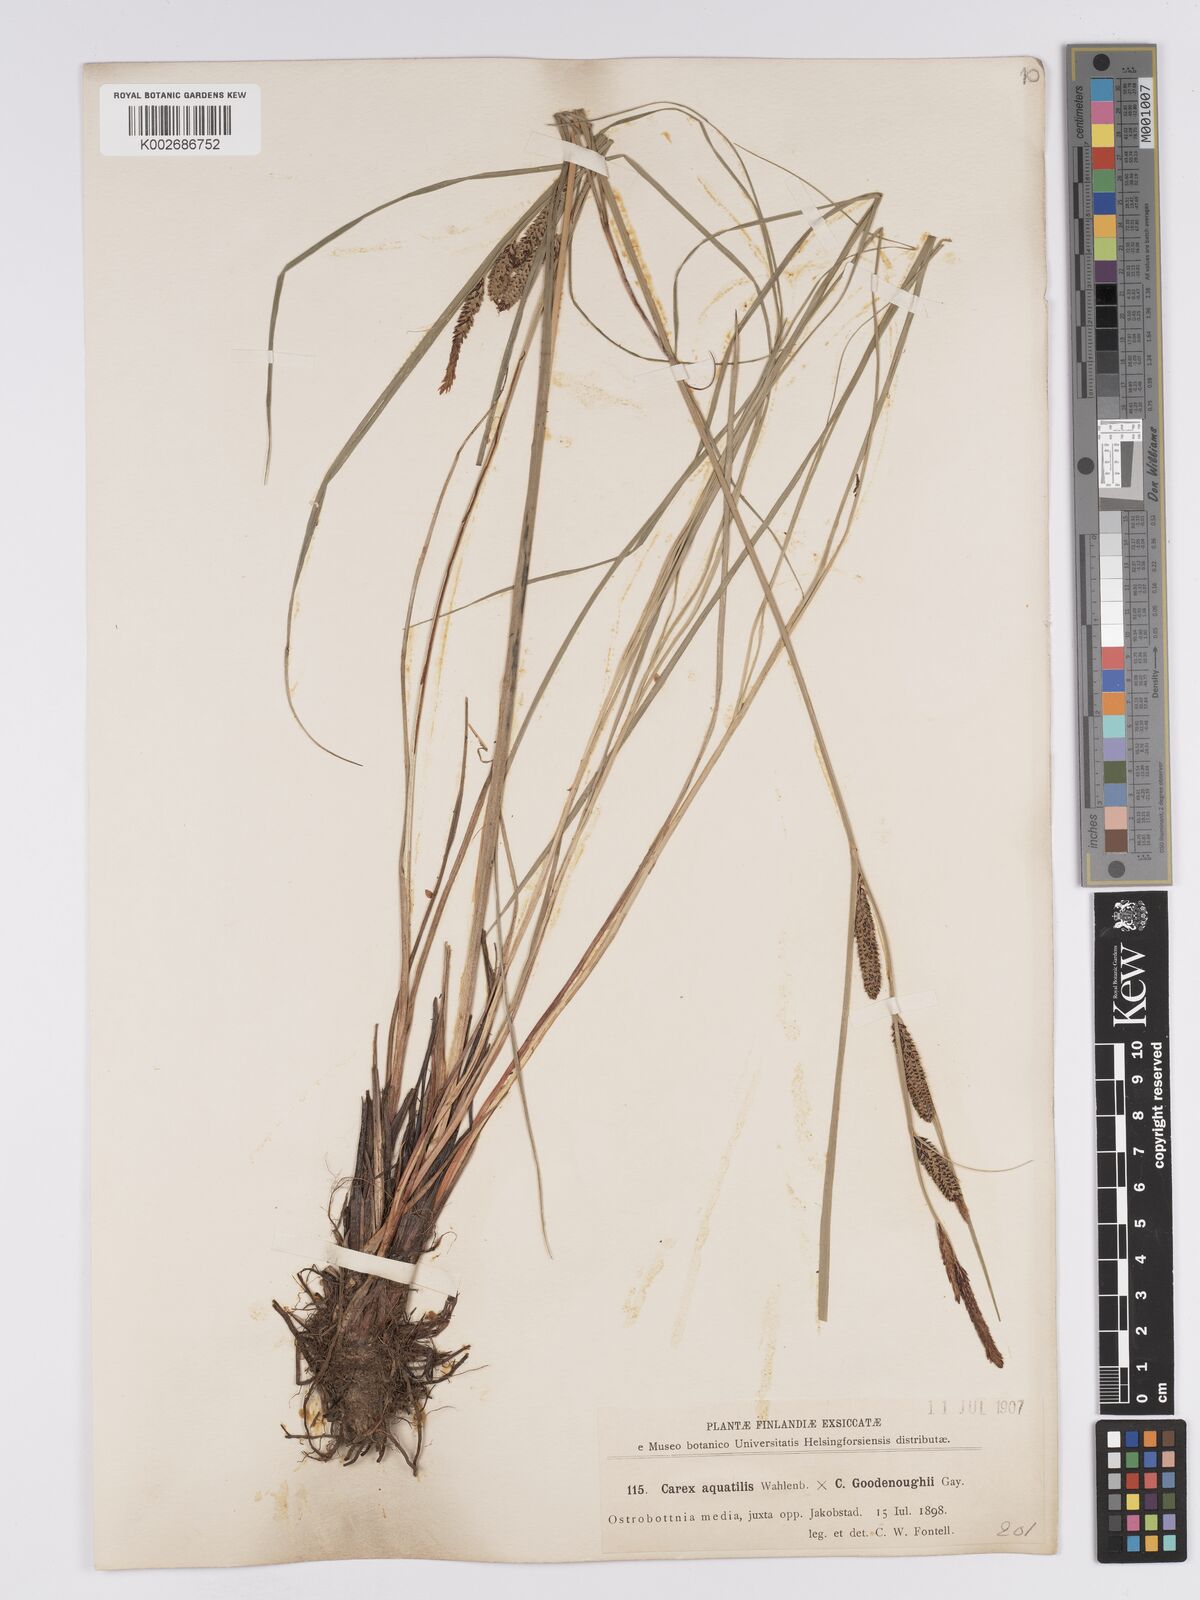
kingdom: Plantae
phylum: Tracheophyta
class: Liliopsida
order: Poales
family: Cyperaceae
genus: Carex
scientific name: Carex aquatilis
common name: Water sedge
